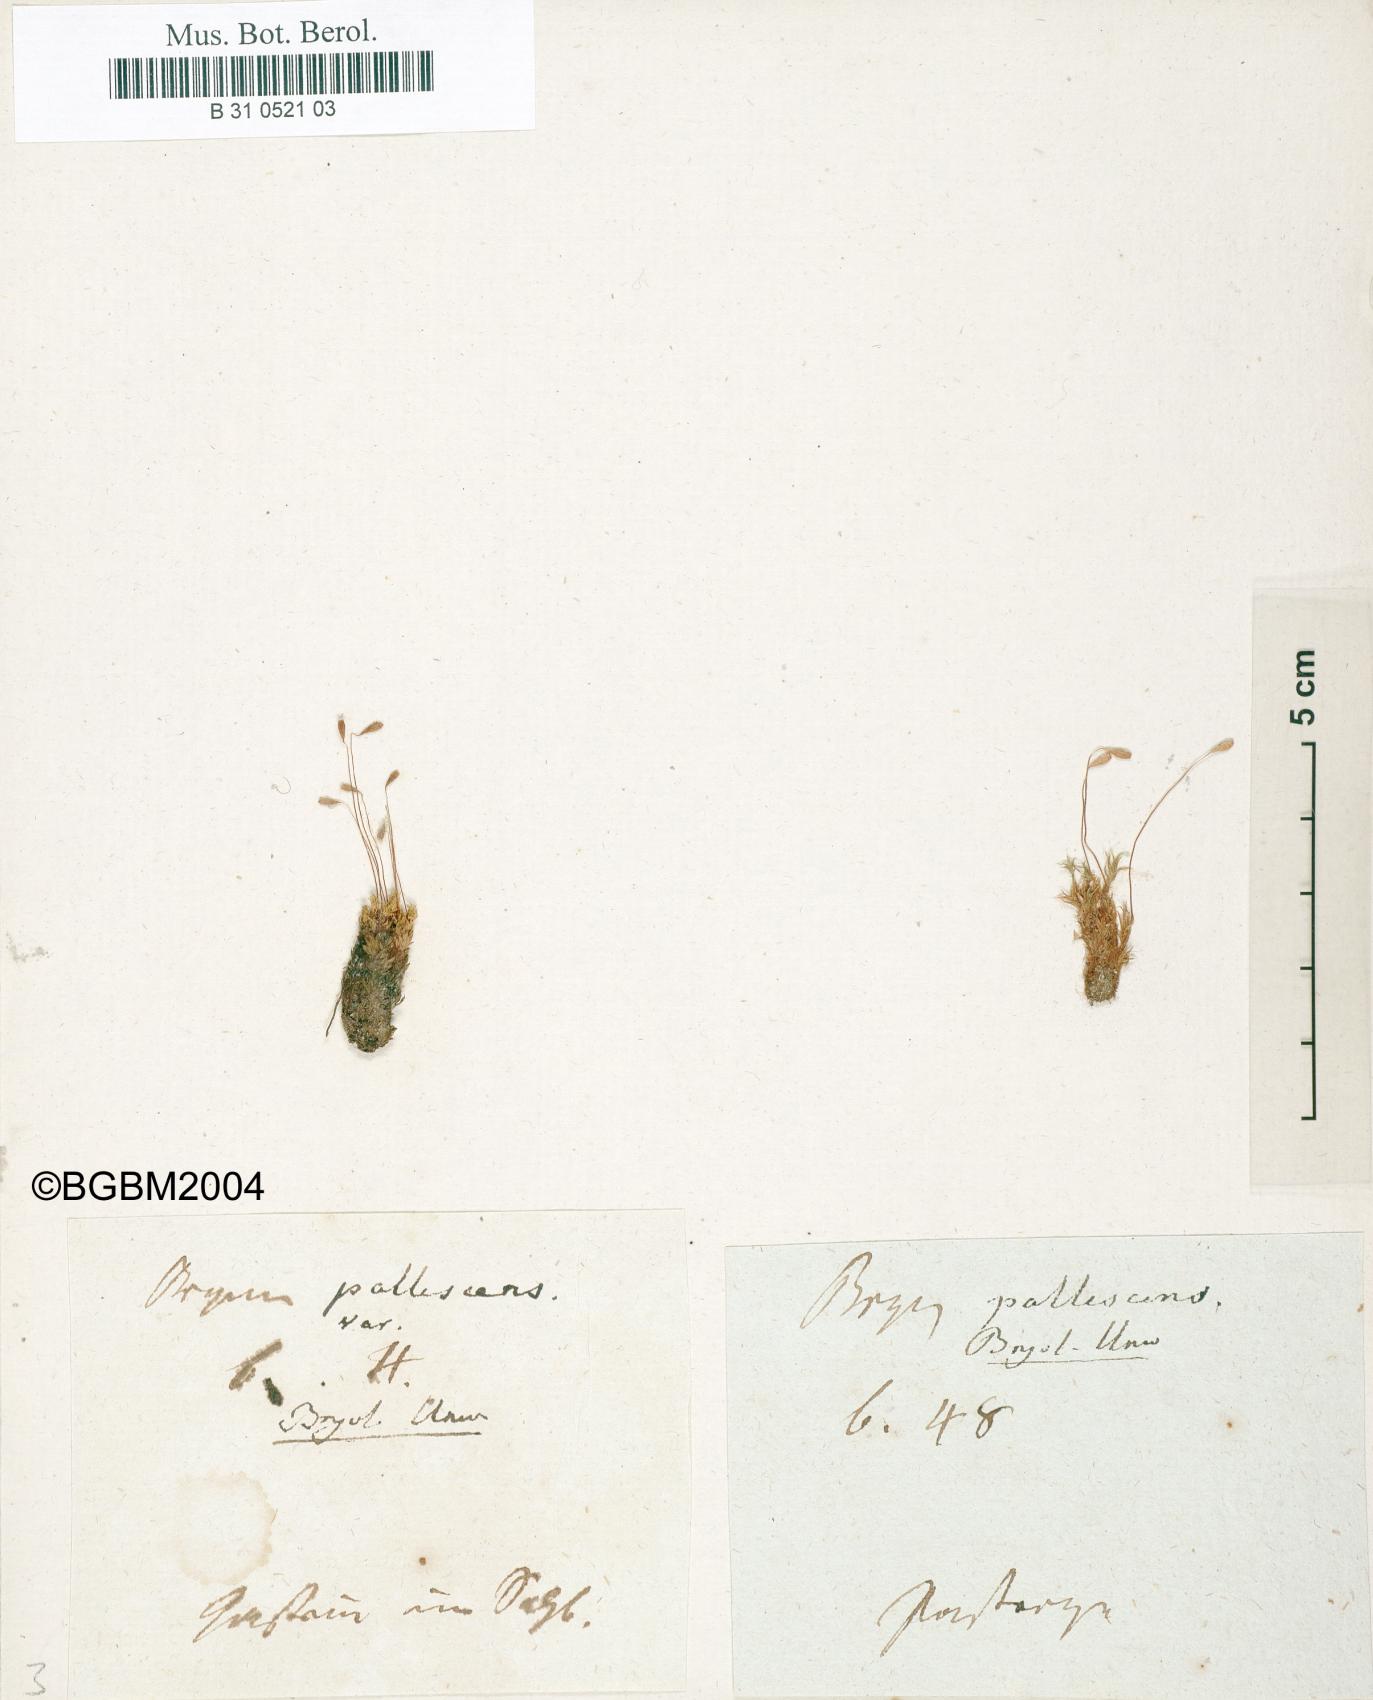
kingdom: Plantae
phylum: Bryophyta
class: Bryopsida
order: Bryales
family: Bryaceae
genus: Ptychostomum
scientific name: Ptychostomum pallescens
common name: Tall-clustered thread-moss
